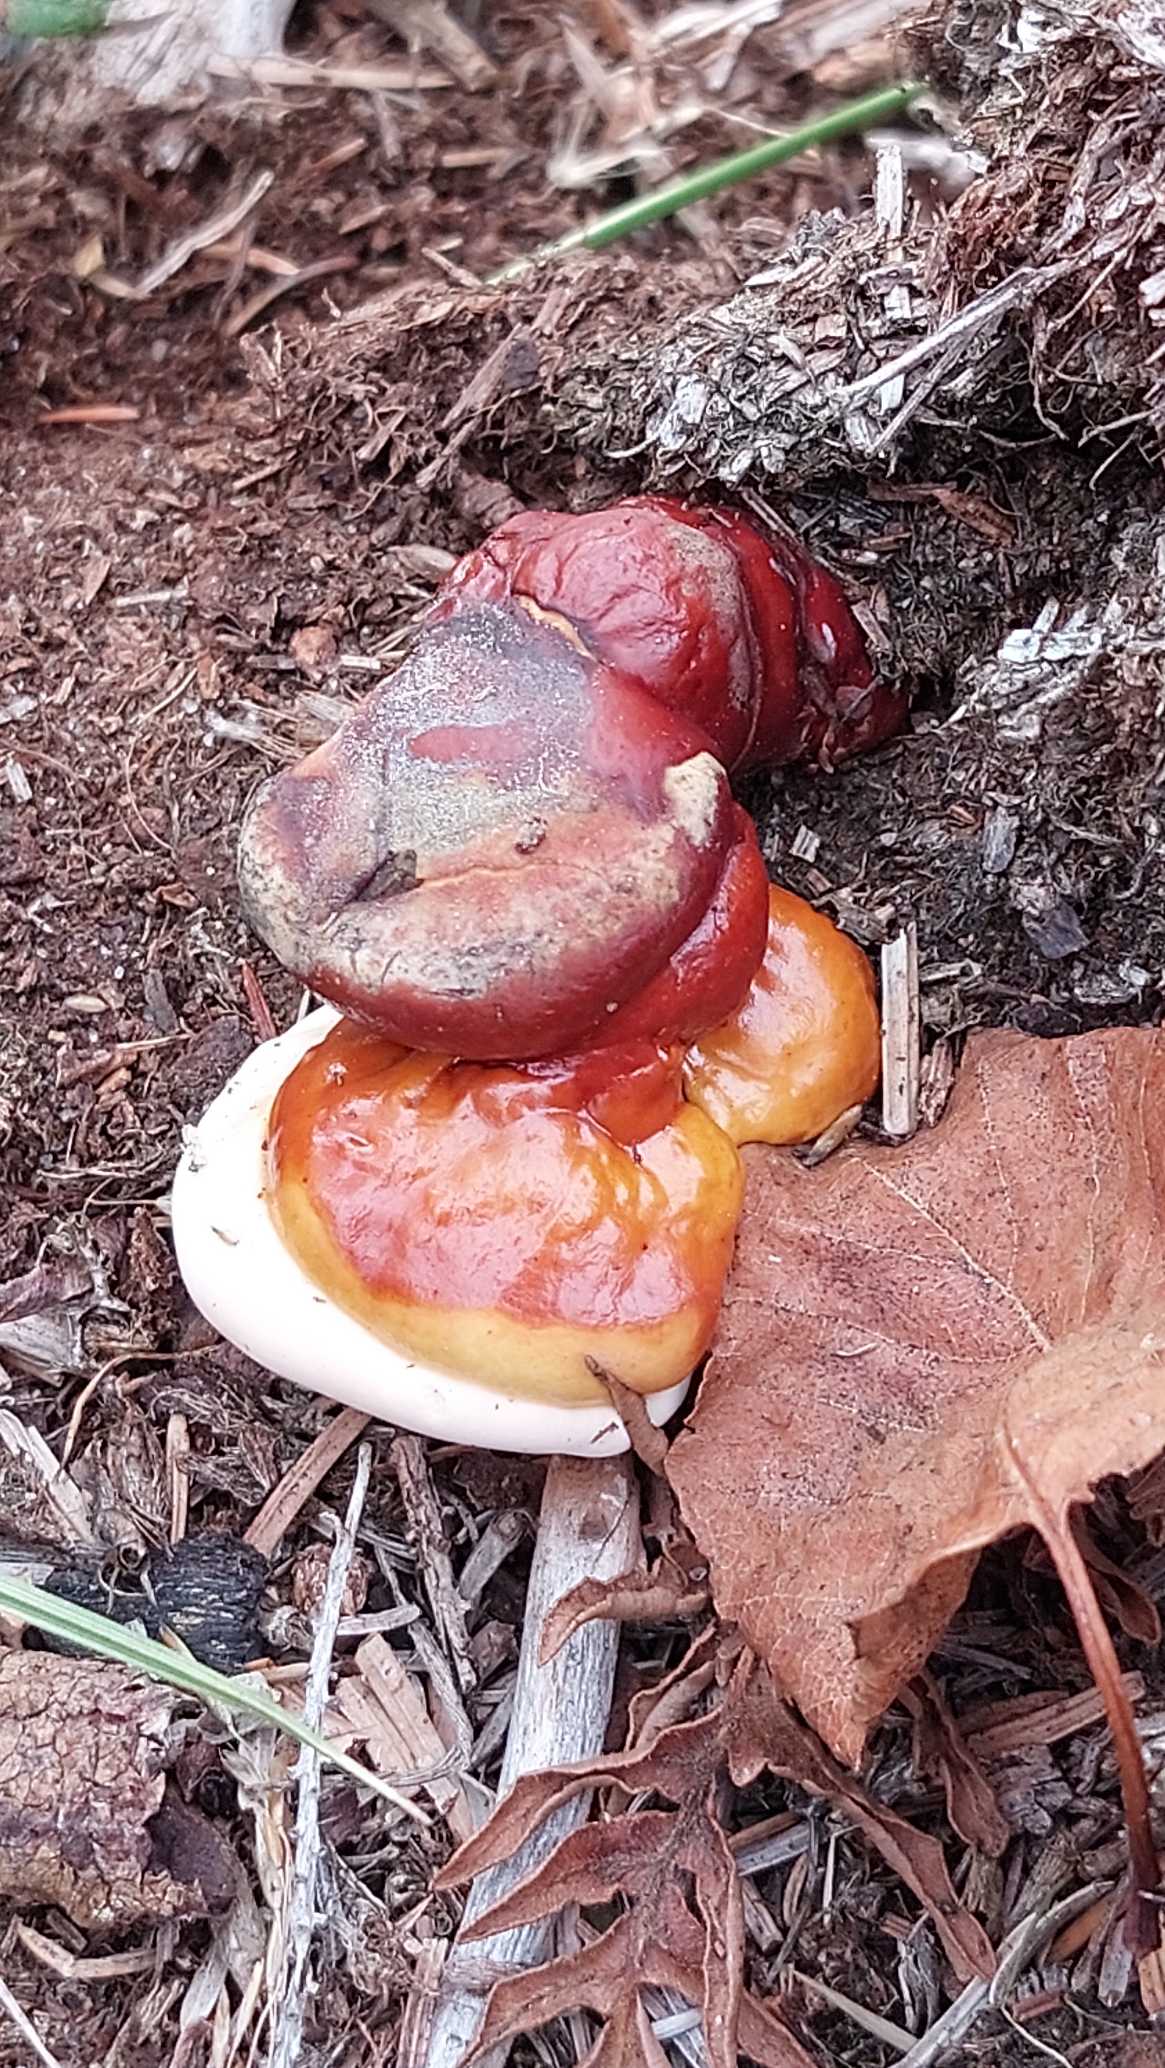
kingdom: Fungi
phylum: Basidiomycota
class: Agaricomycetes
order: Polyporales
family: Polyporaceae
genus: Ganoderma
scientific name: Ganoderma lucidum
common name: Skinnende lakporesvamp
